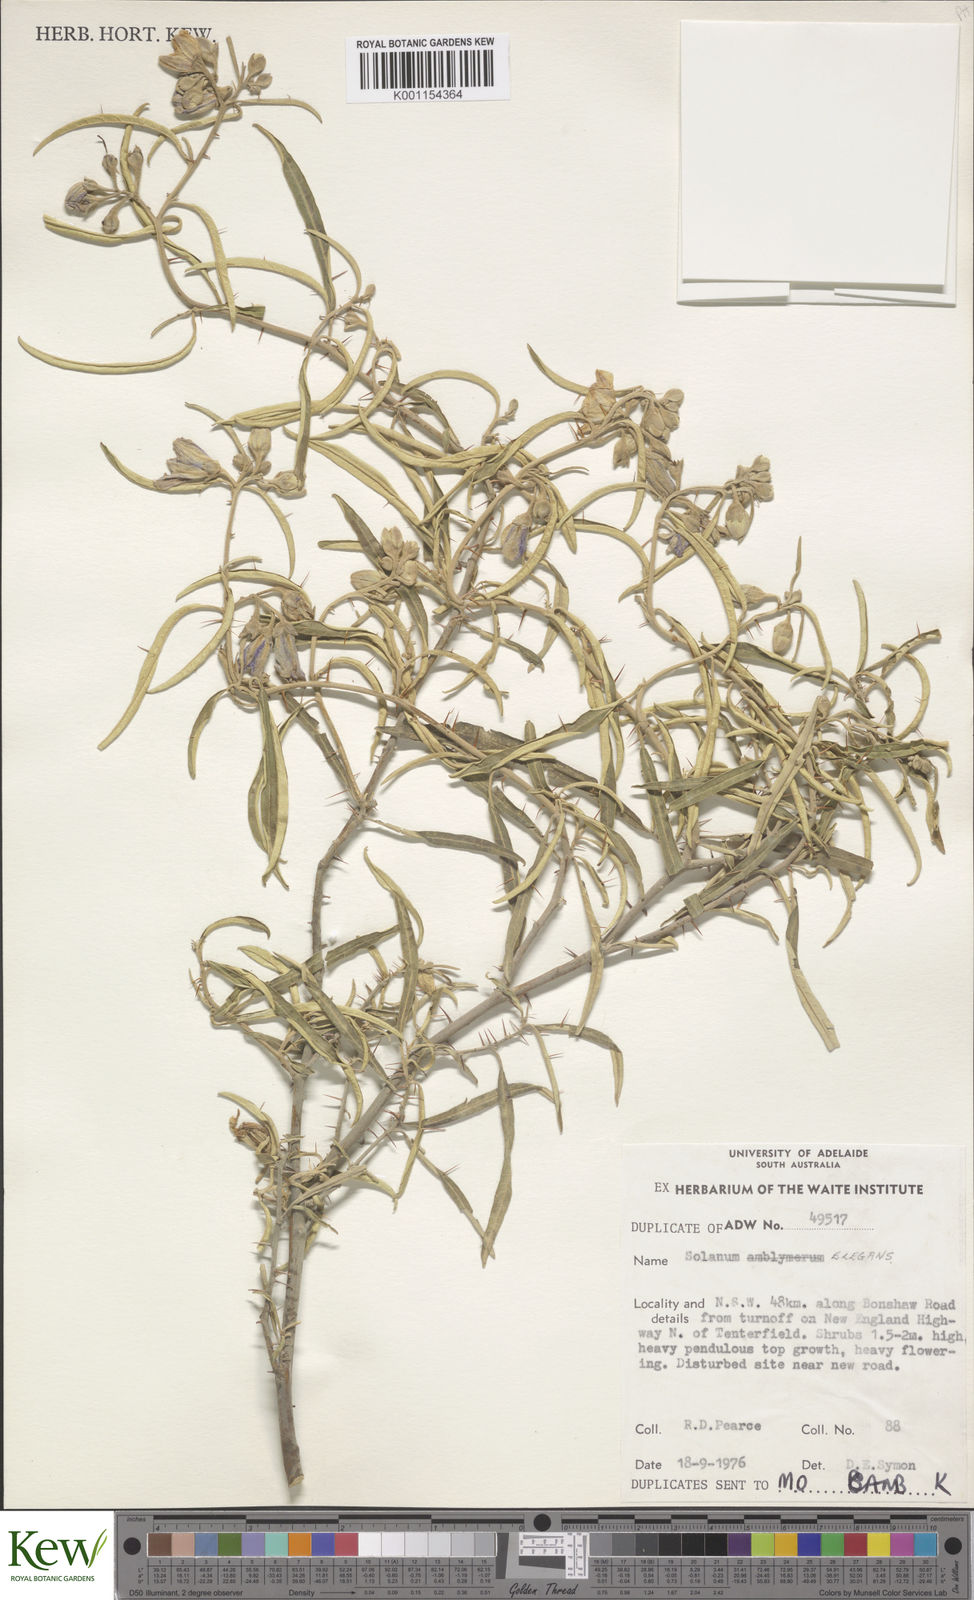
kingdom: Plantae
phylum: Tracheophyta
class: Magnoliopsida
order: Solanales
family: Solanaceae
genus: Solanum
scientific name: Solanum elegans
